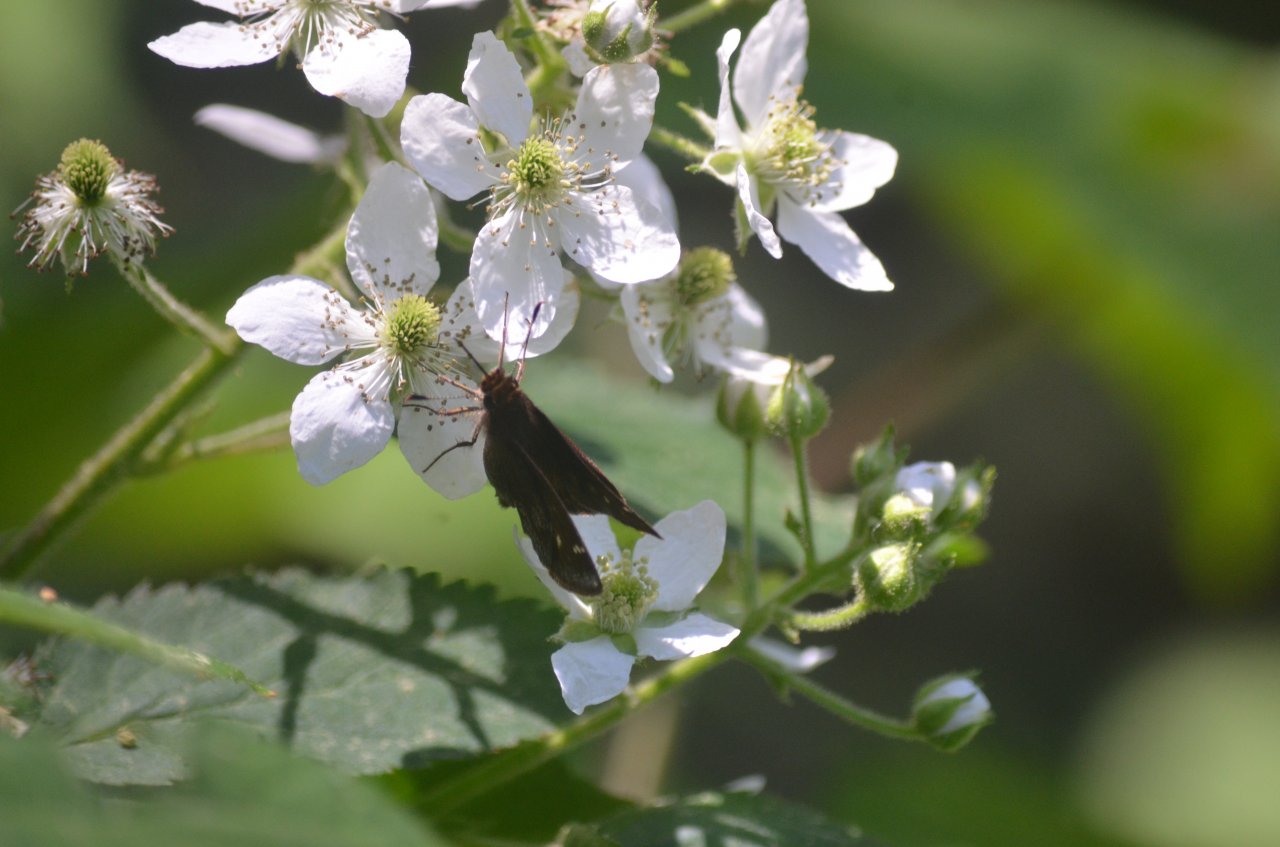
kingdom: Animalia
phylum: Arthropoda
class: Insecta
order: Lepidoptera
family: Hesperiidae
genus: Lon
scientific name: Lon hobomok
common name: Hobomok Skipper
